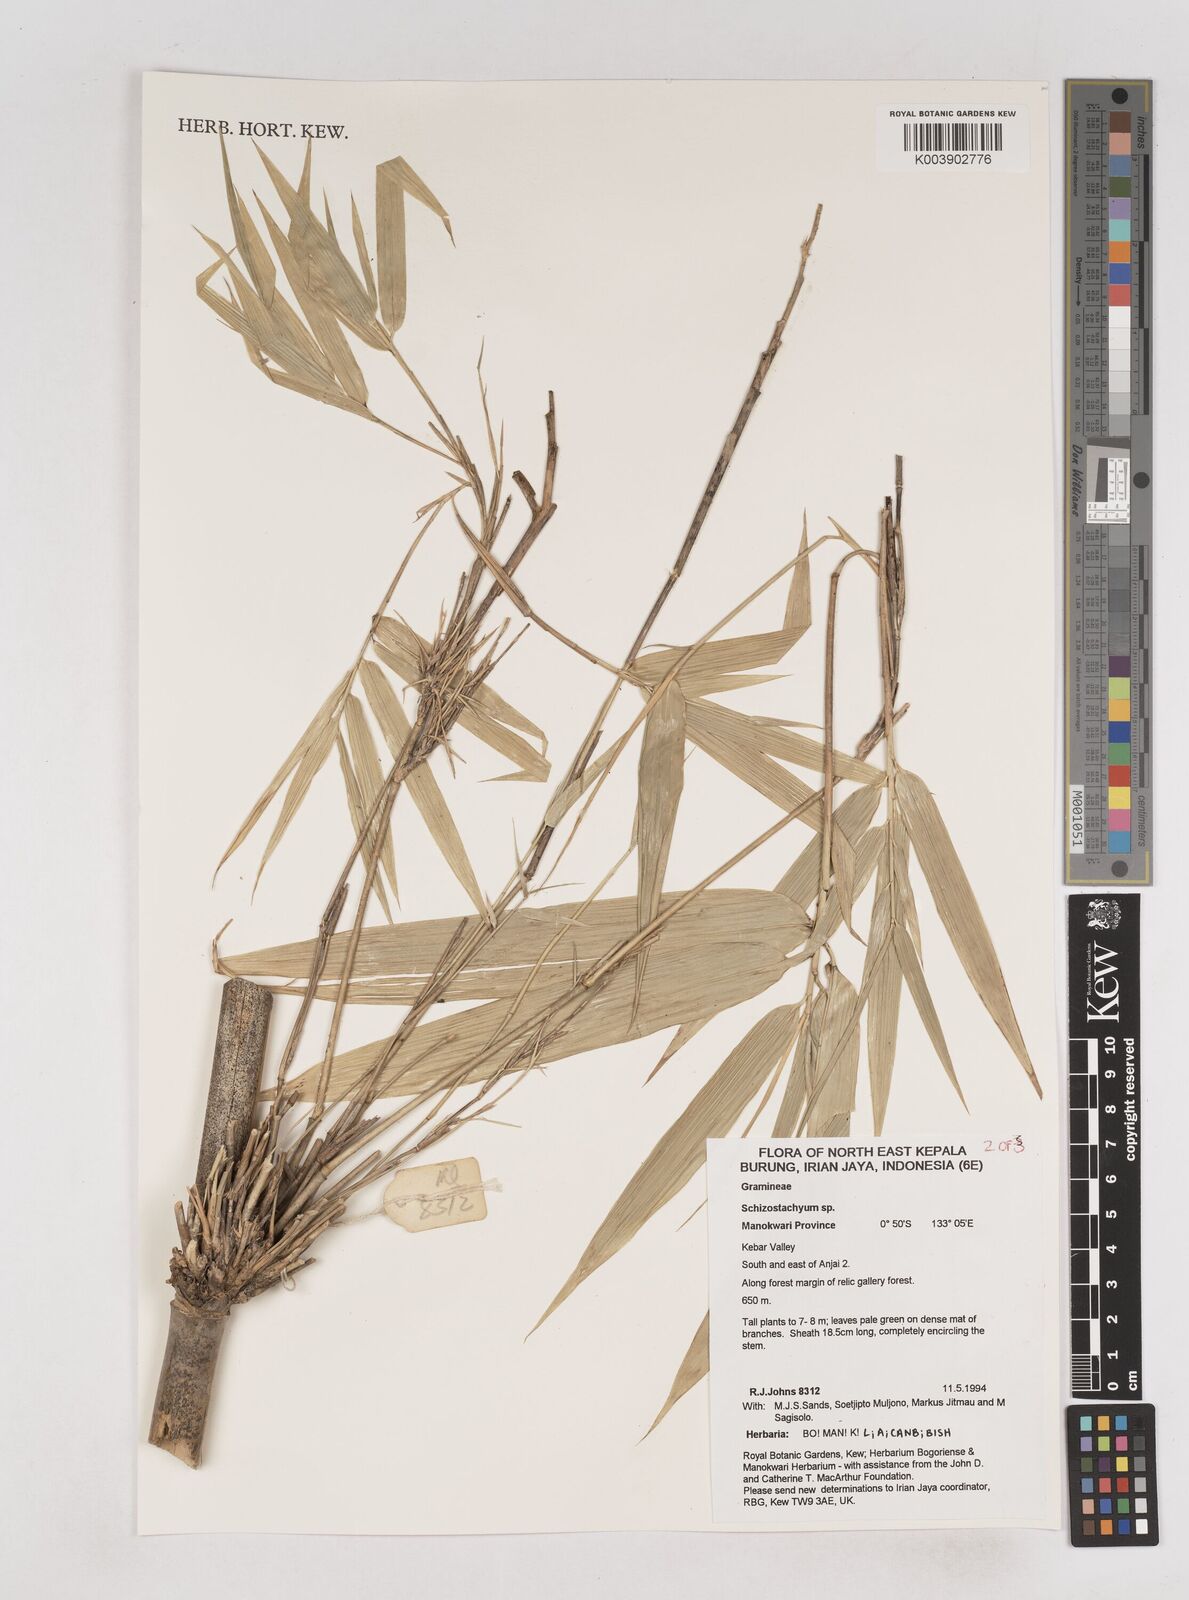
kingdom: Plantae
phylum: Tracheophyta
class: Liliopsida
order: Poales
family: Poaceae
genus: Schizostachyum
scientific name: Schizostachyum
